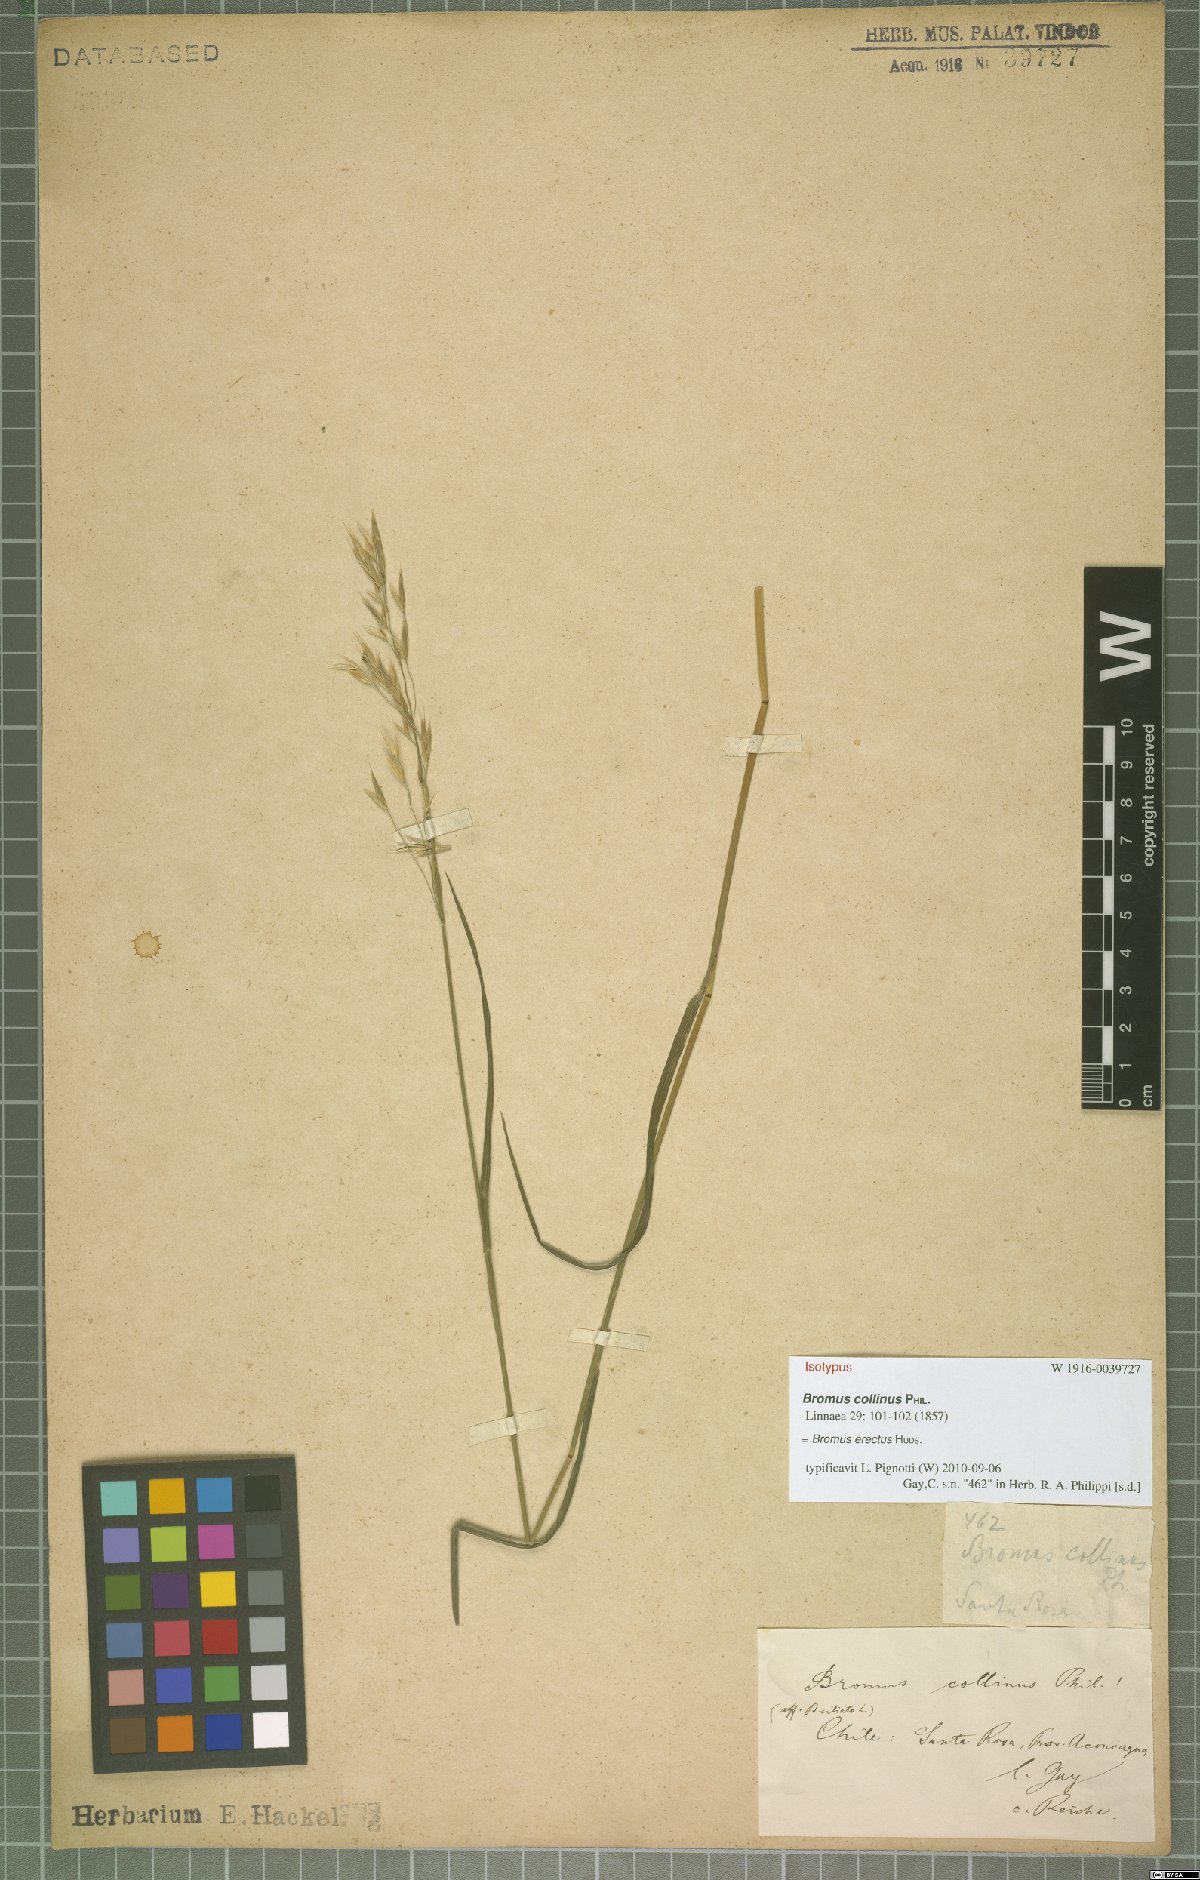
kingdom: Plantae
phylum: Tracheophyta
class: Liliopsida
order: Poales
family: Poaceae
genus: Bromus
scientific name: Bromus erectus
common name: Erect brome
